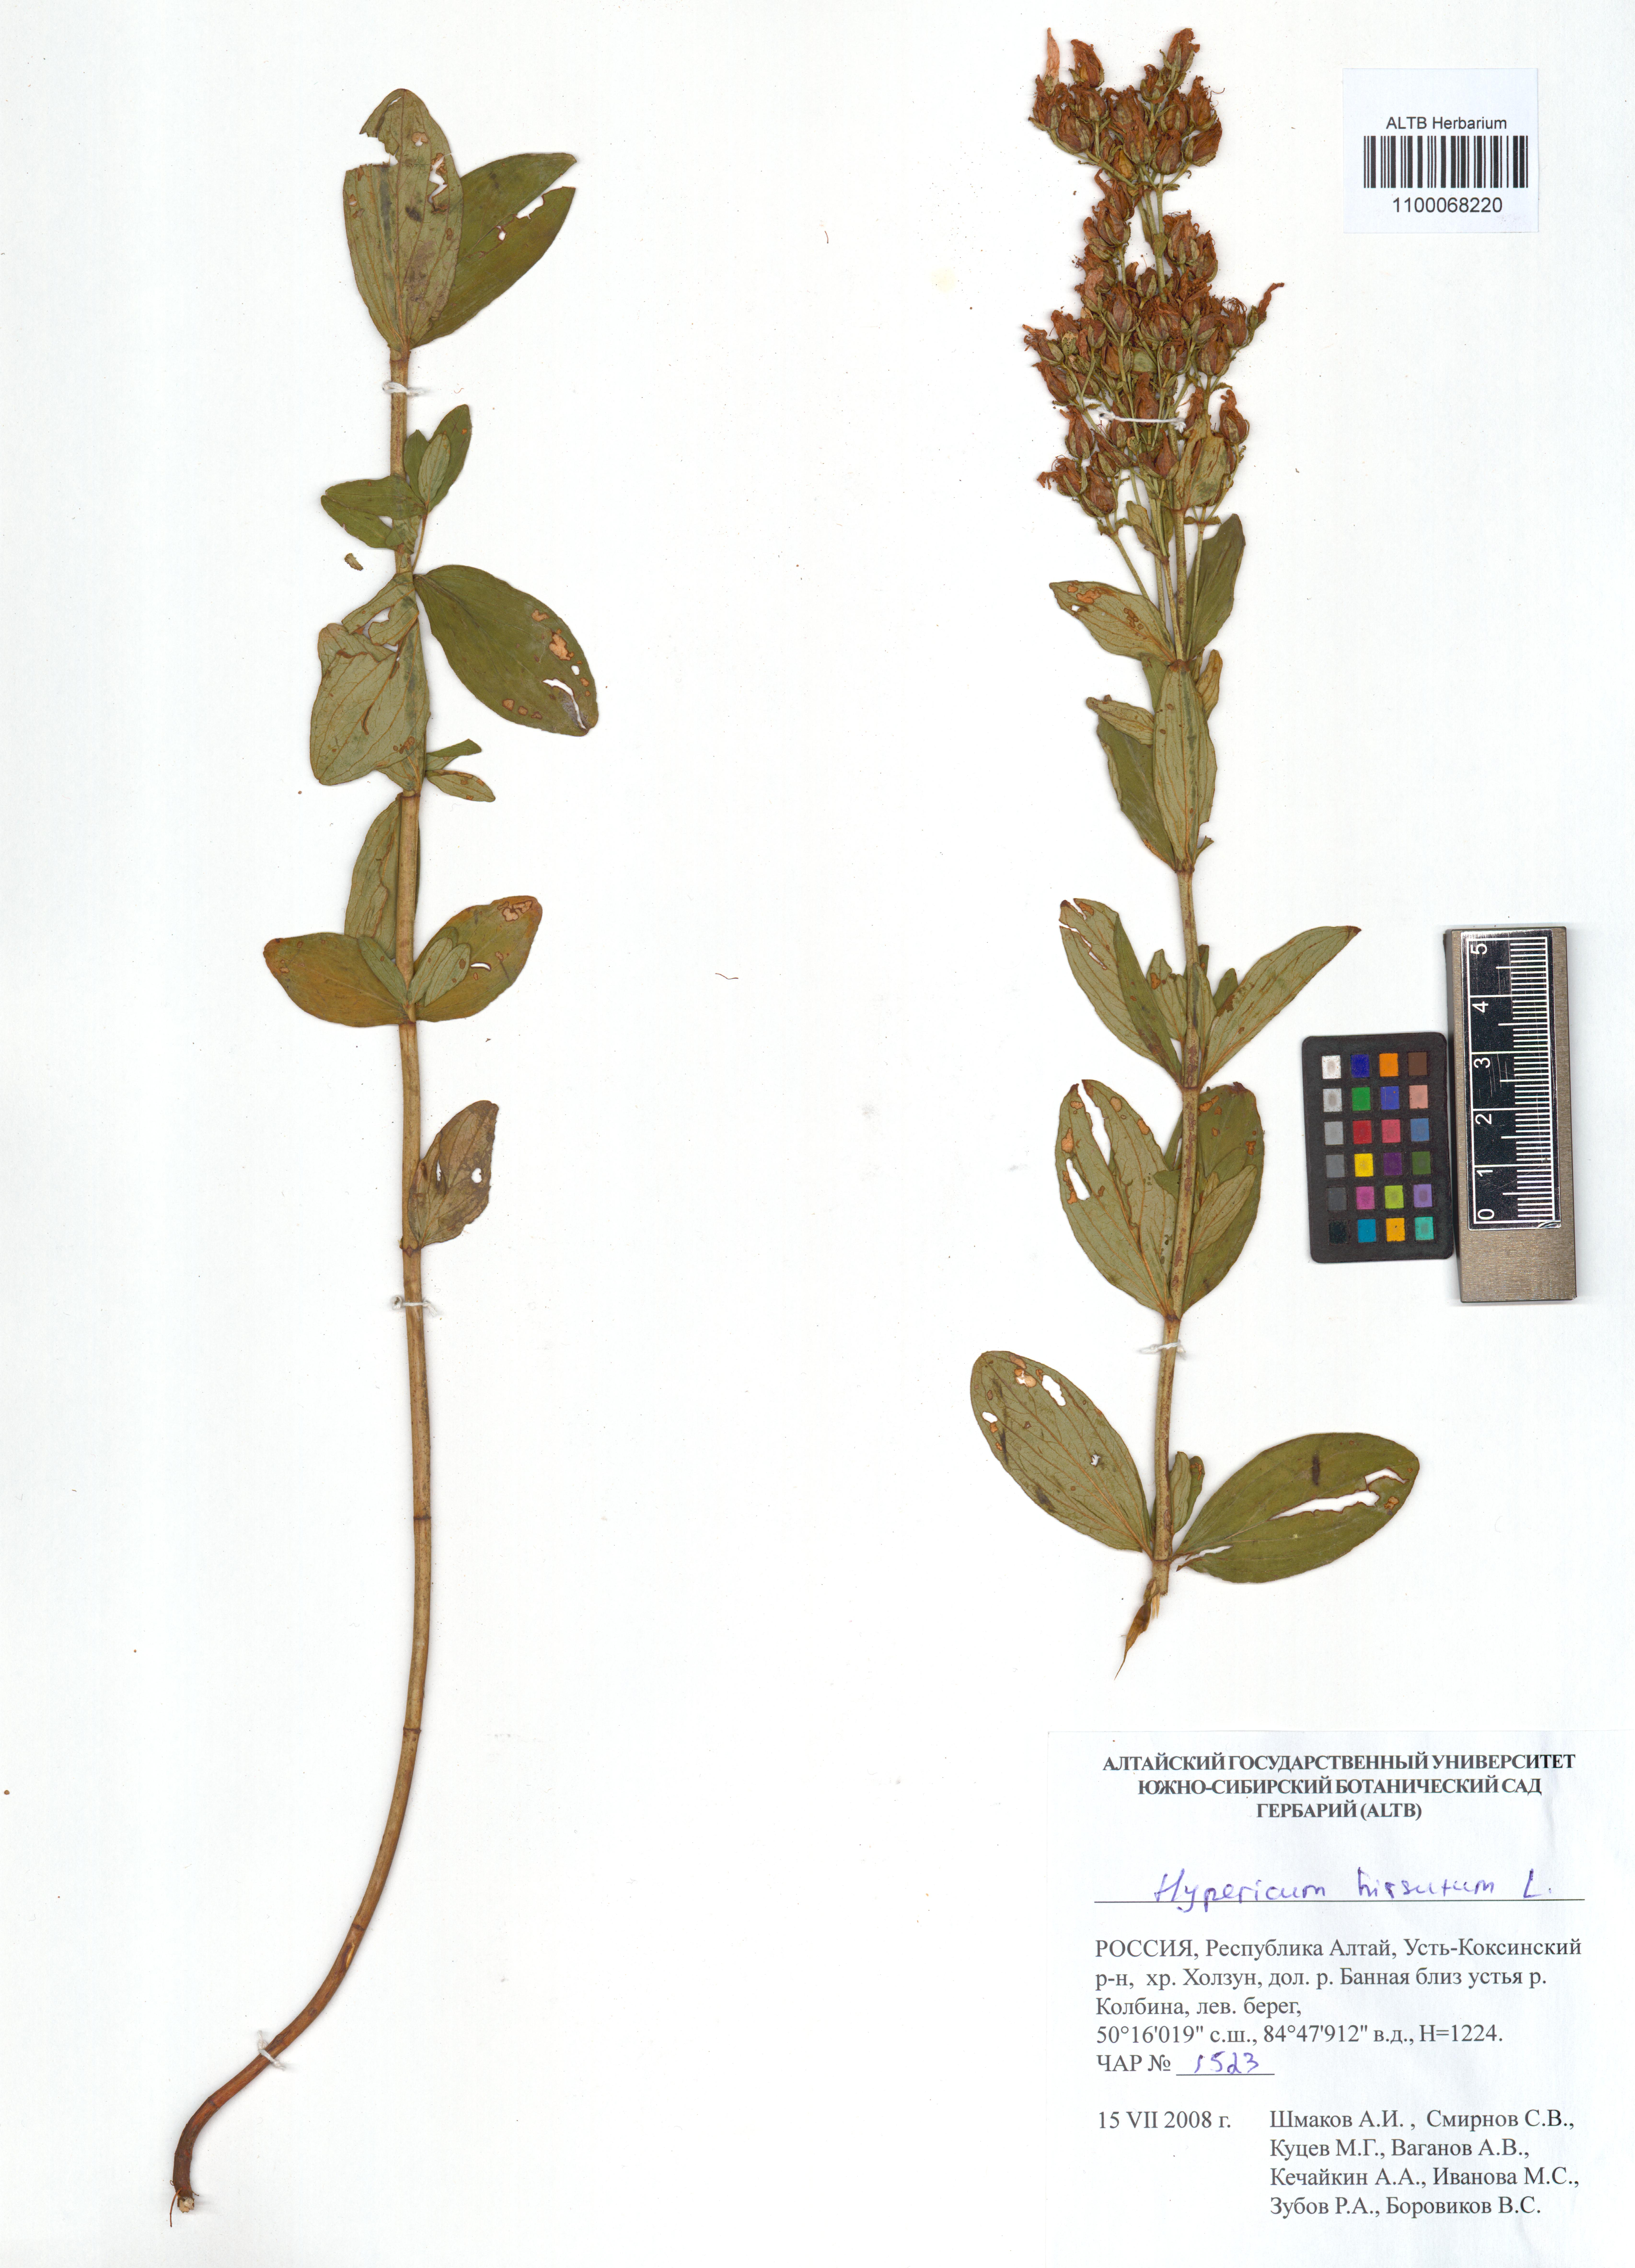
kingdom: Plantae
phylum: Tracheophyta
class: Magnoliopsida
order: Malpighiales
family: Hypericaceae
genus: Hypericum
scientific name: Hypericum hirsutum
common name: Hairy st. john's-wort
